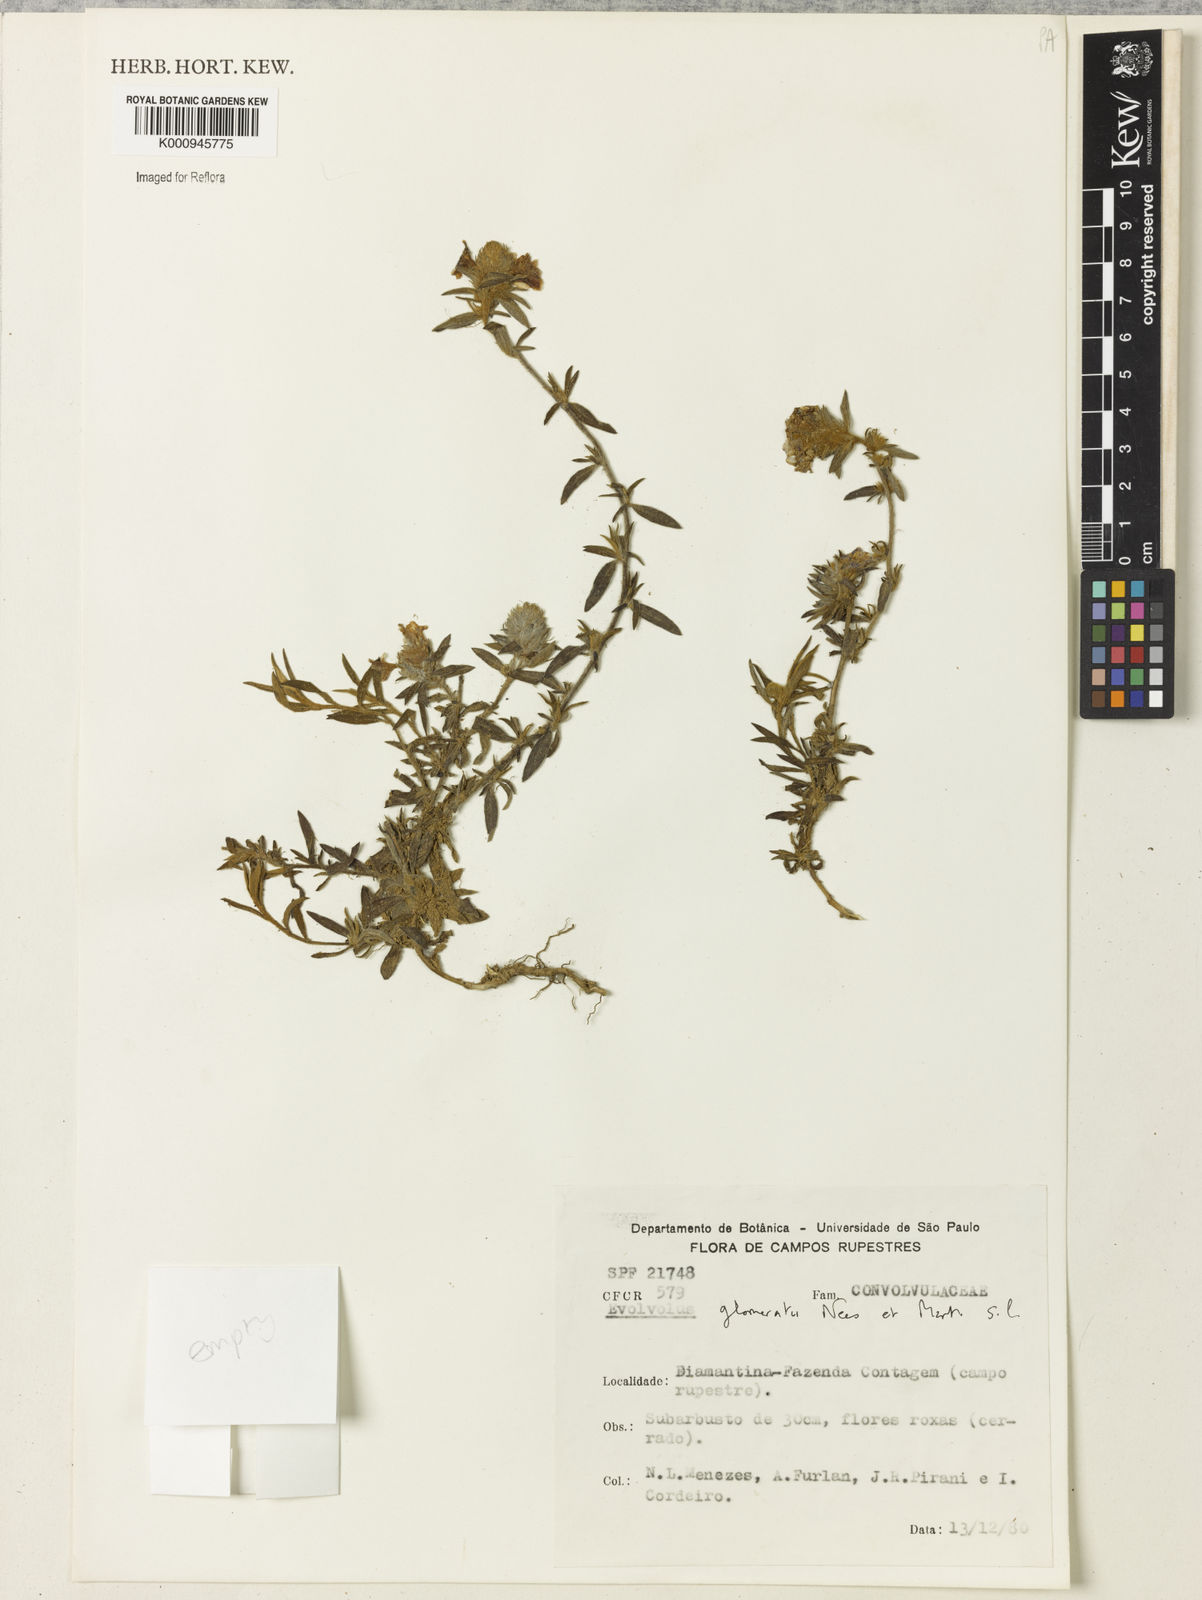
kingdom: Plantae
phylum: Tracheophyta
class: Magnoliopsida
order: Solanales
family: Convolvulaceae
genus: Evolvulus
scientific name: Evolvulus glomeratus
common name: Brazilian dwarf morning-glory
